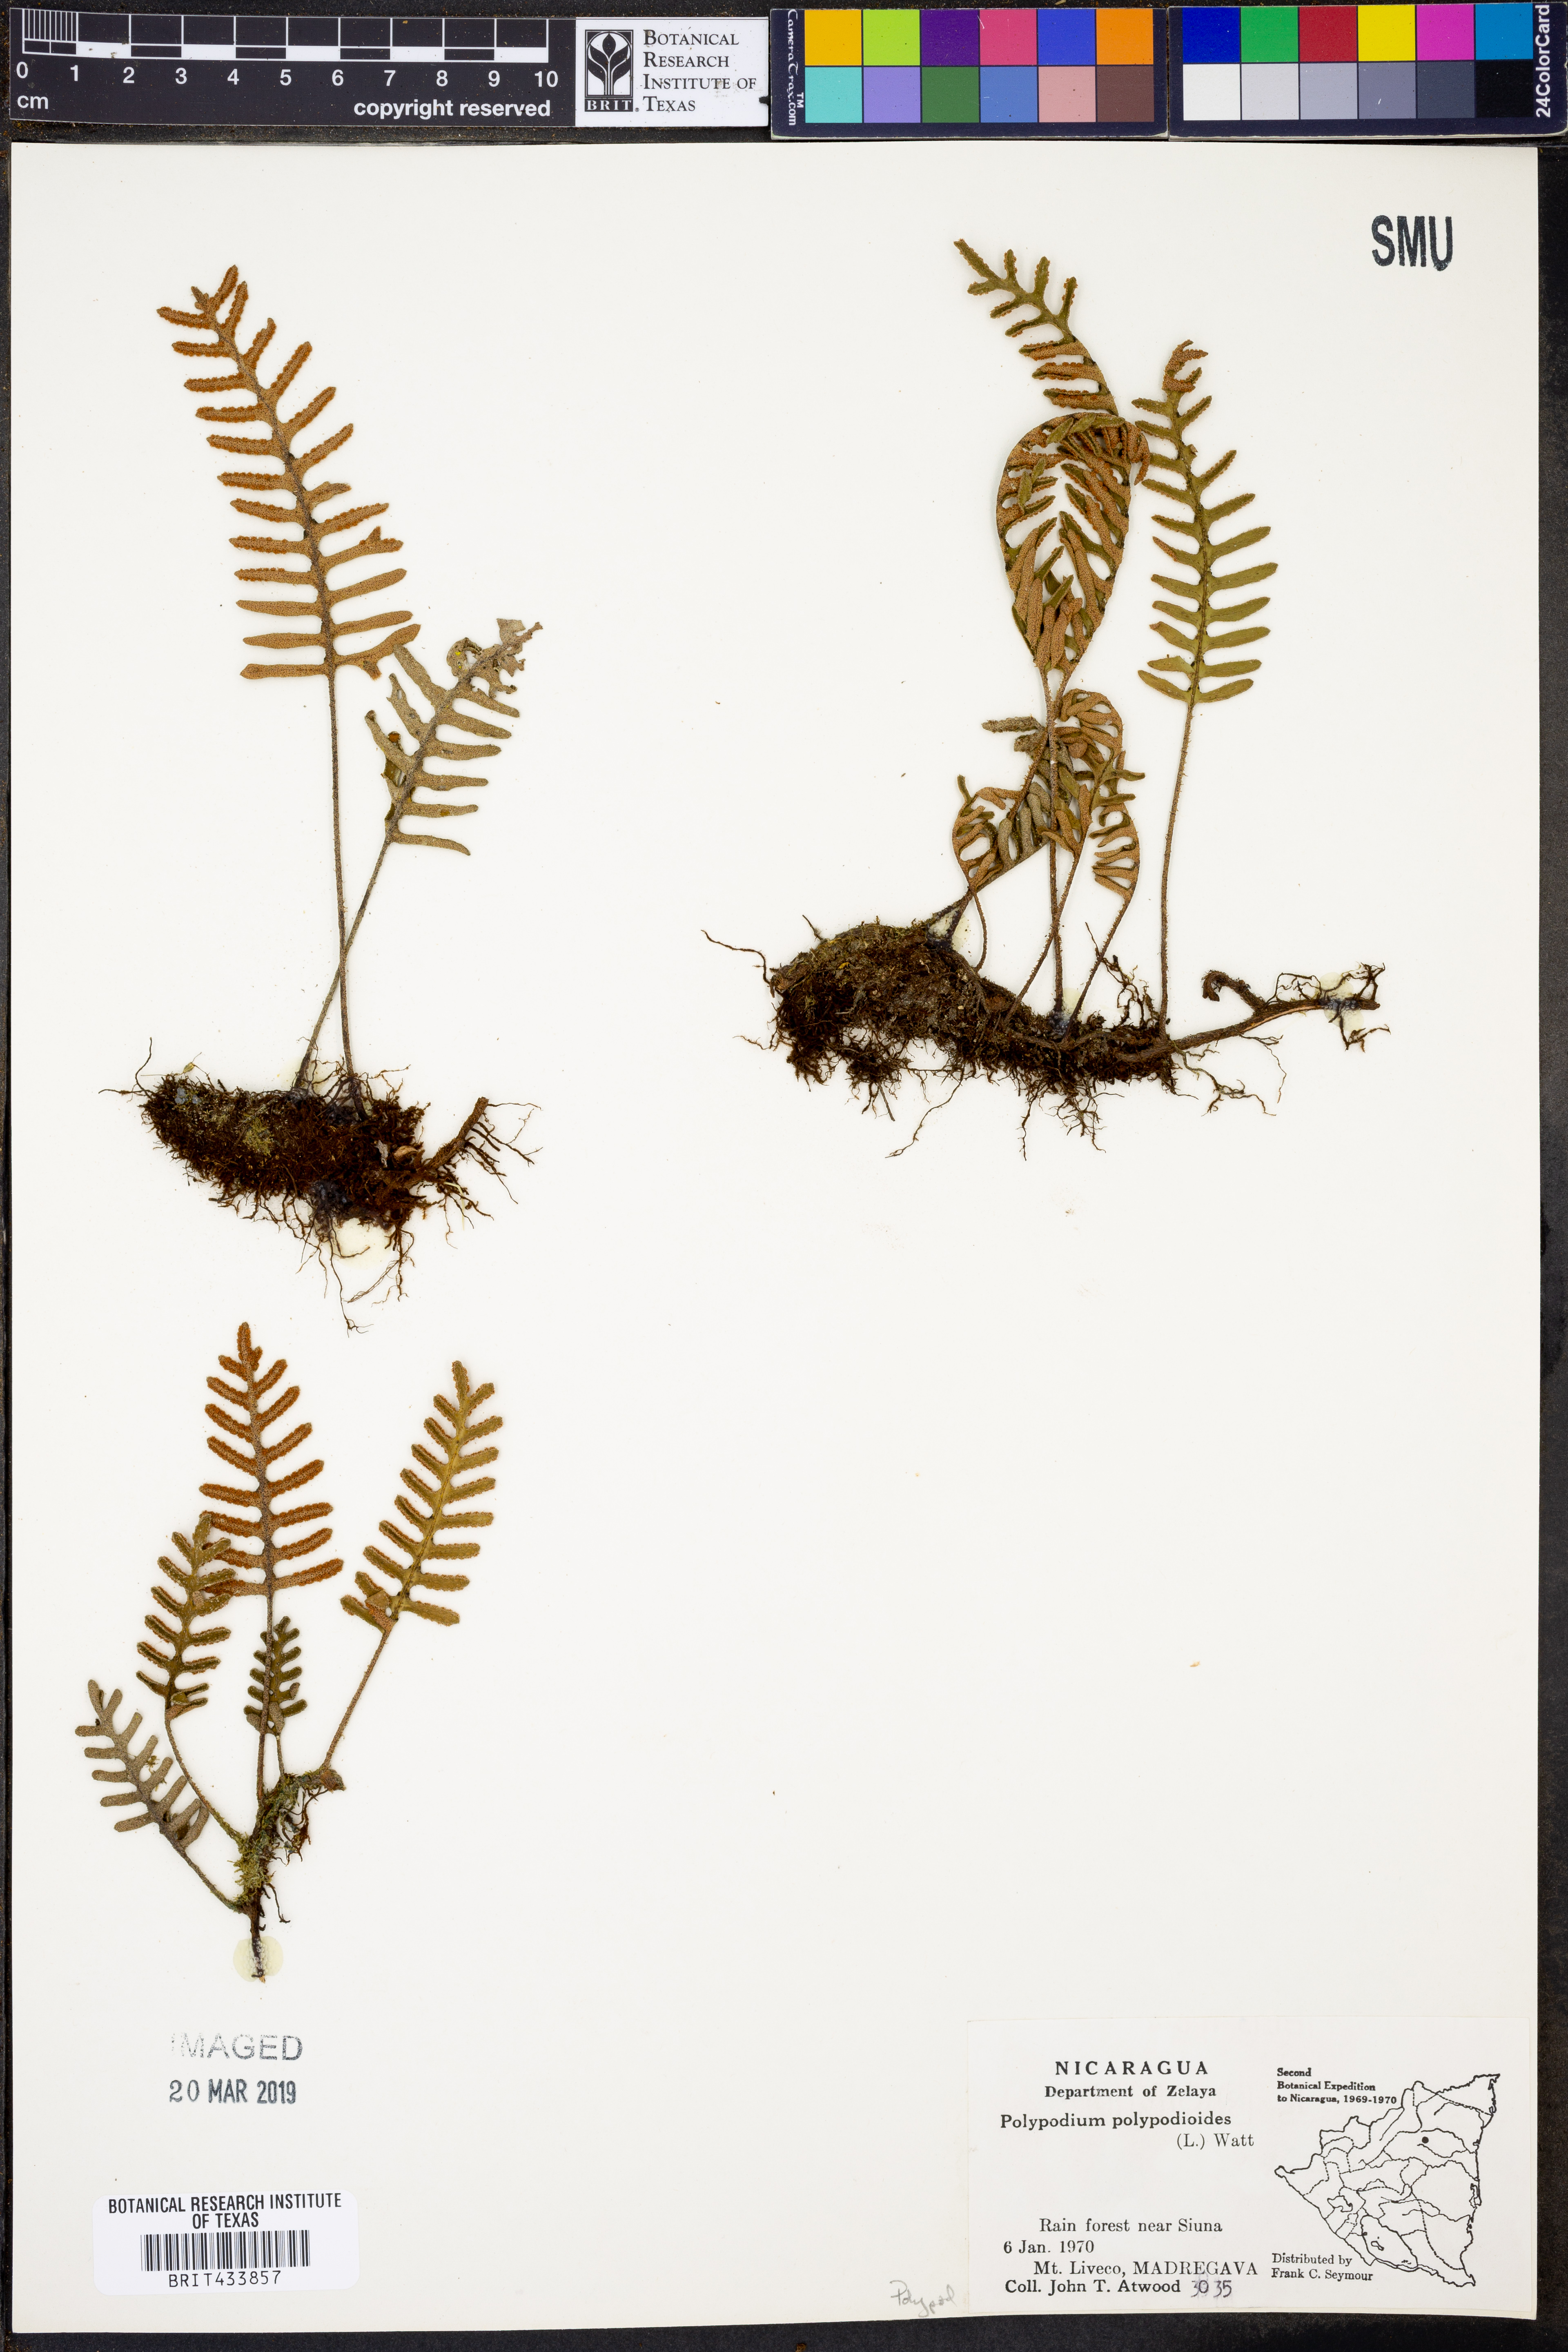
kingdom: Plantae
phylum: Tracheophyta
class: Polypodiopsida
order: Polypodiales
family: Polypodiaceae
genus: Pleopeltis
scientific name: Pleopeltis polypodioides
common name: Resurrection fern
